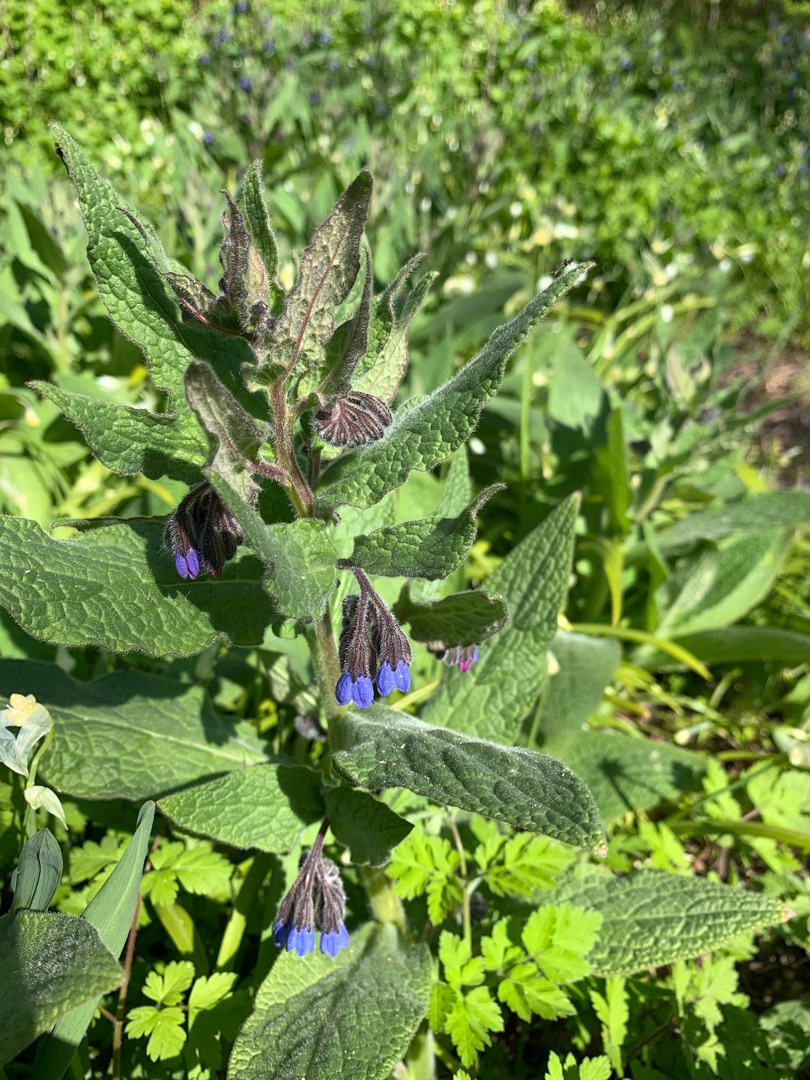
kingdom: Plantae
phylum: Tracheophyta
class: Magnoliopsida
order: Boraginales
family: Boraginaceae
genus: Symphytum
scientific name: Symphytum uplandicum
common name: Foder-kulsukker
